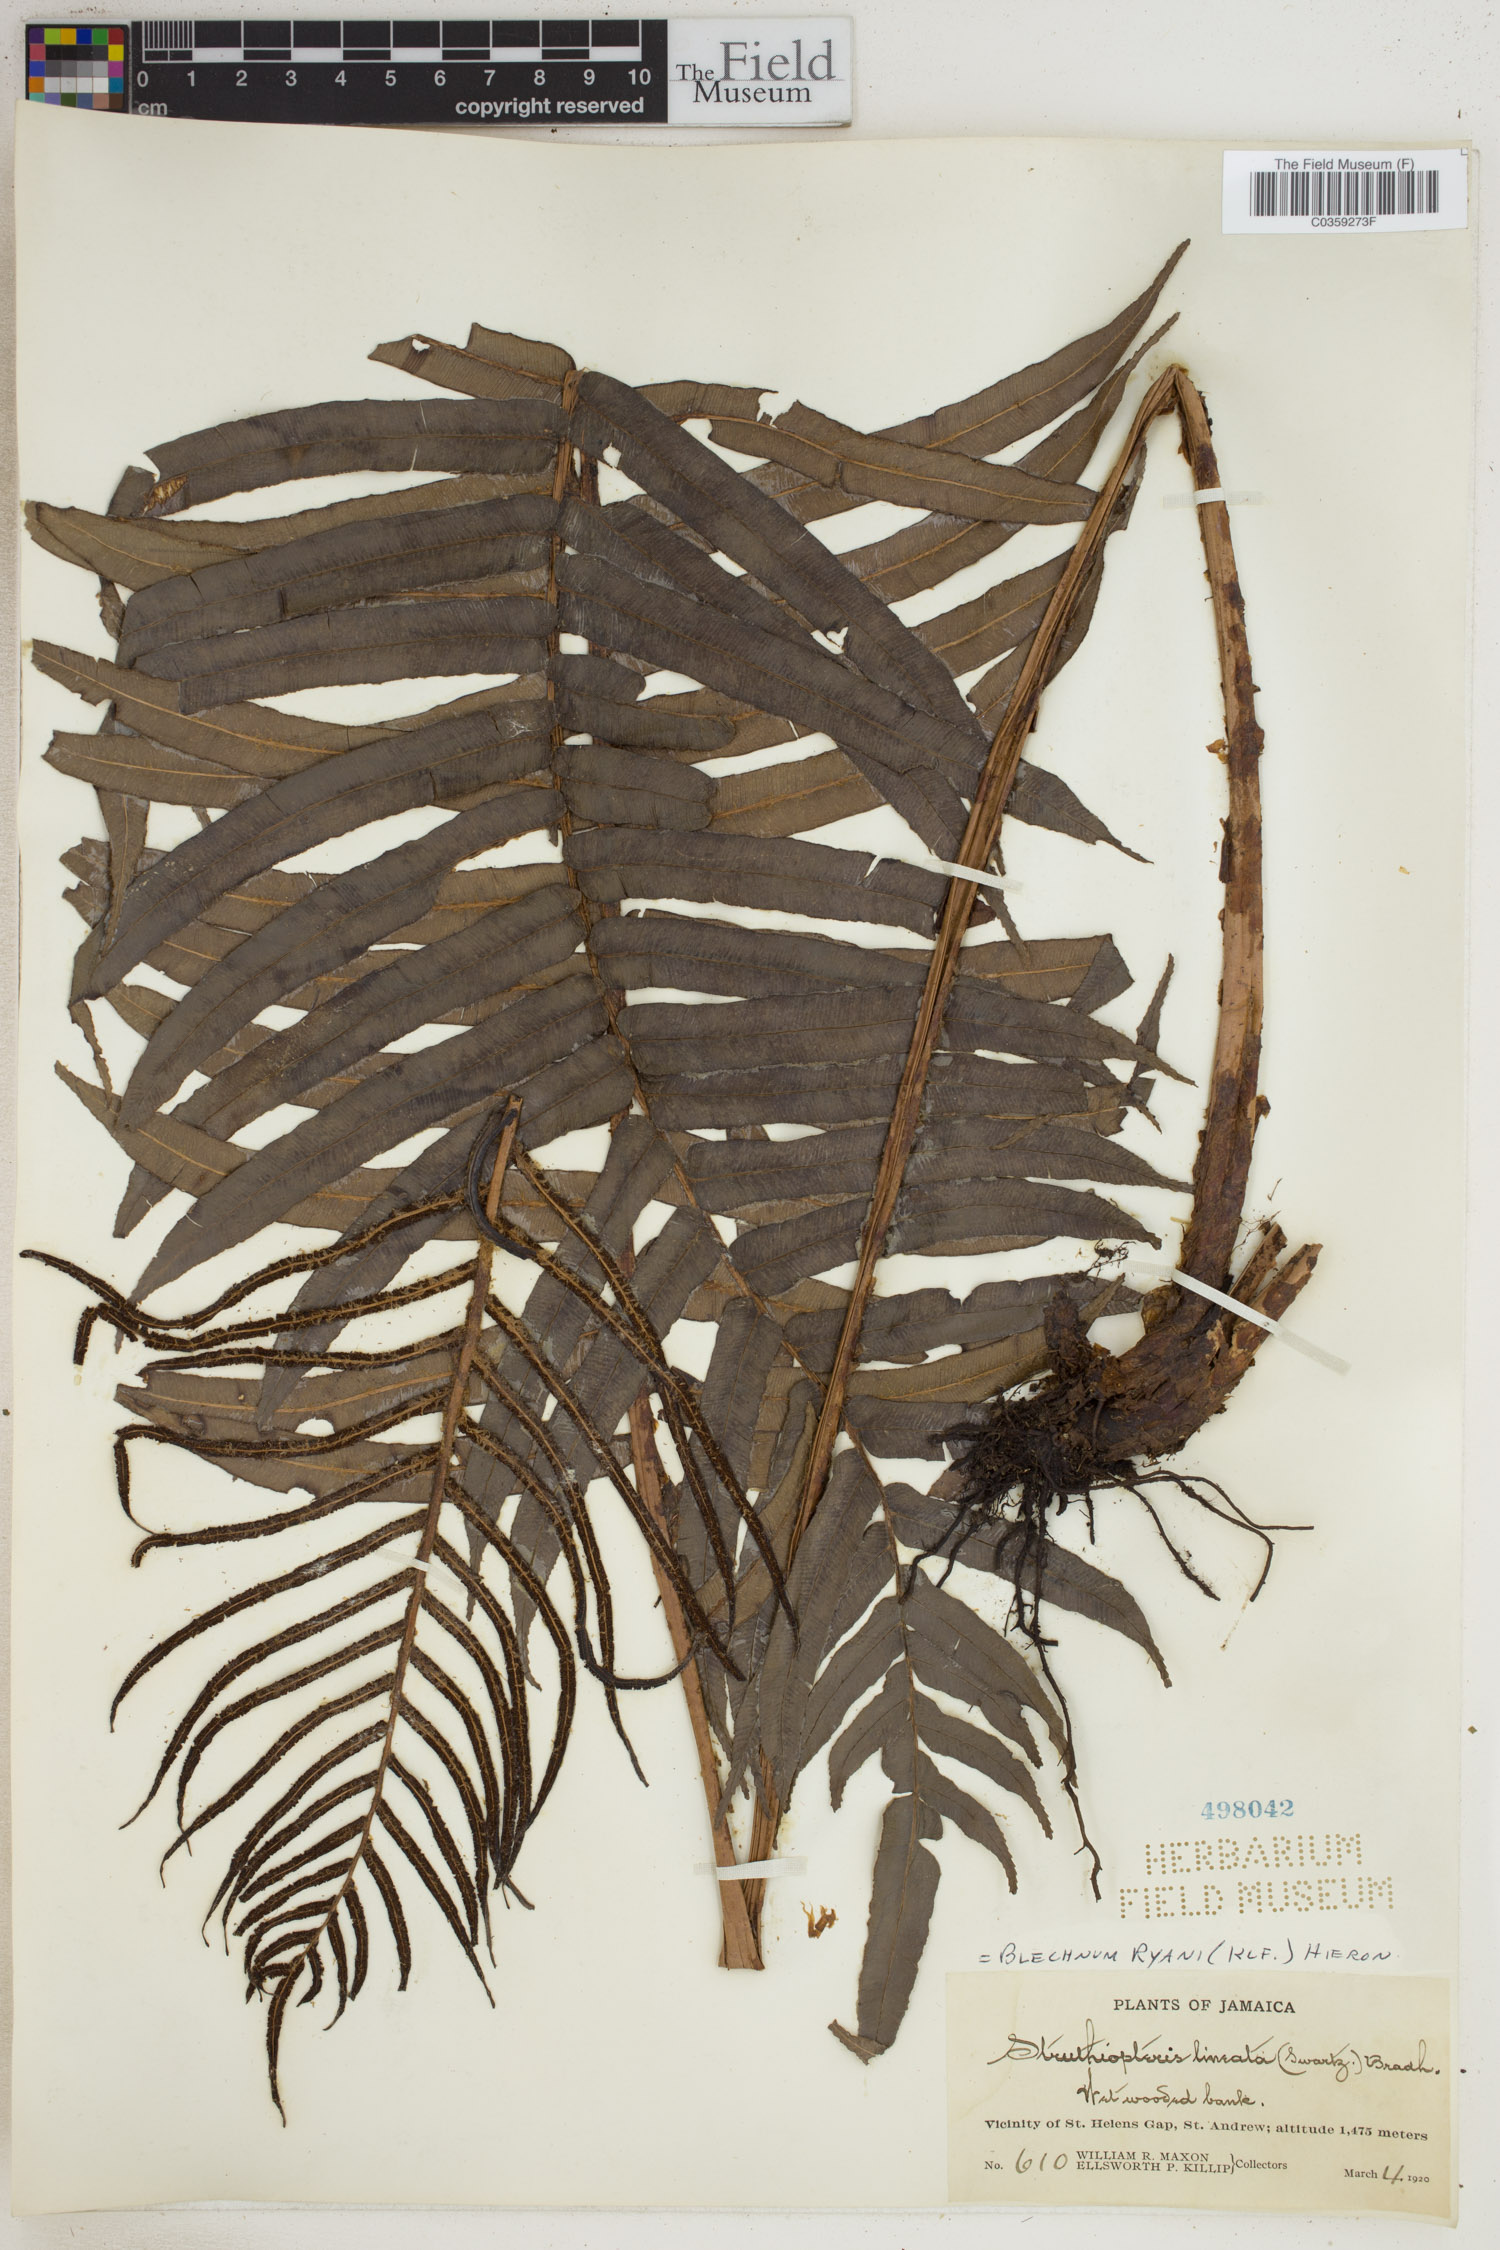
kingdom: Plantae
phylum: Tracheophyta
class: Polypodiopsida
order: Polypodiales
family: Blechnaceae
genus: Parablechnum
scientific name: Parablechnum ryanii
